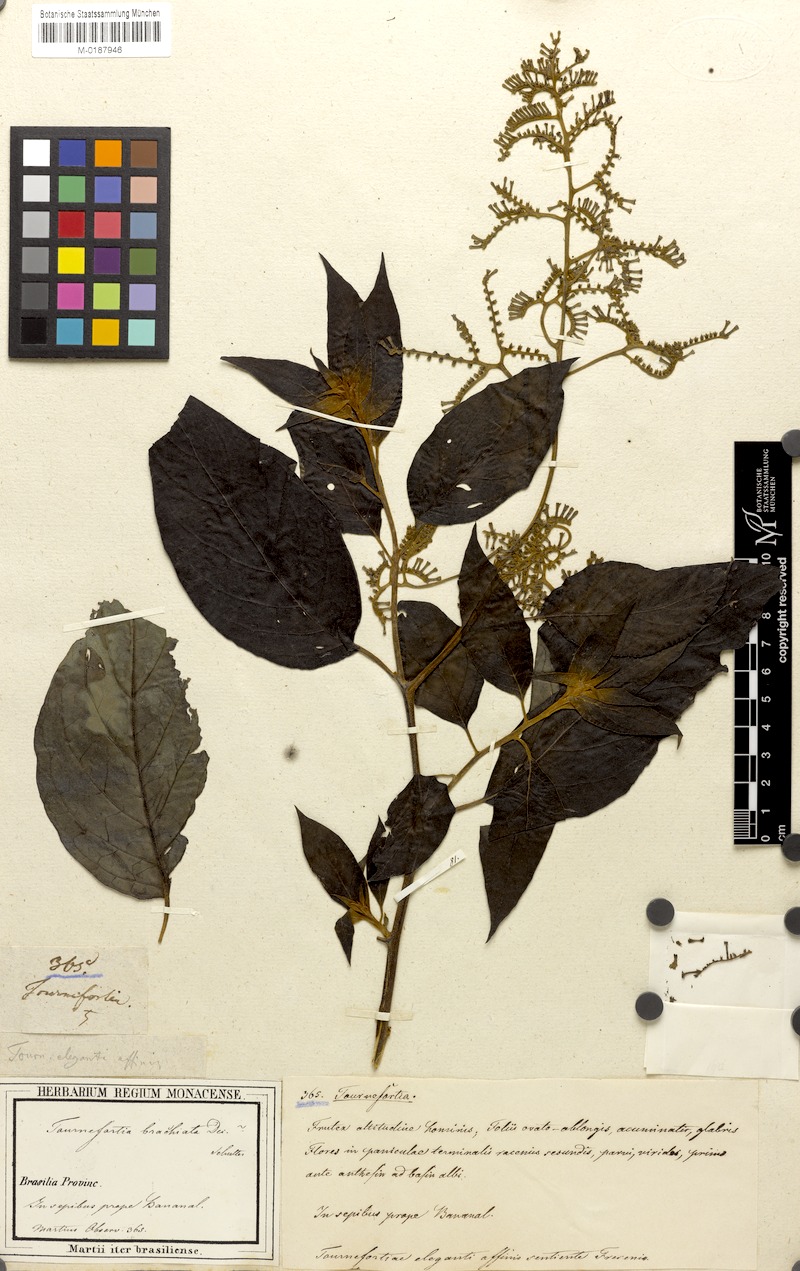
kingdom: Plantae
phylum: Tracheophyta
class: Magnoliopsida
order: Boraginales
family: Heliotropiaceae
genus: Myriopus
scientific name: Myriopus paniculatus
